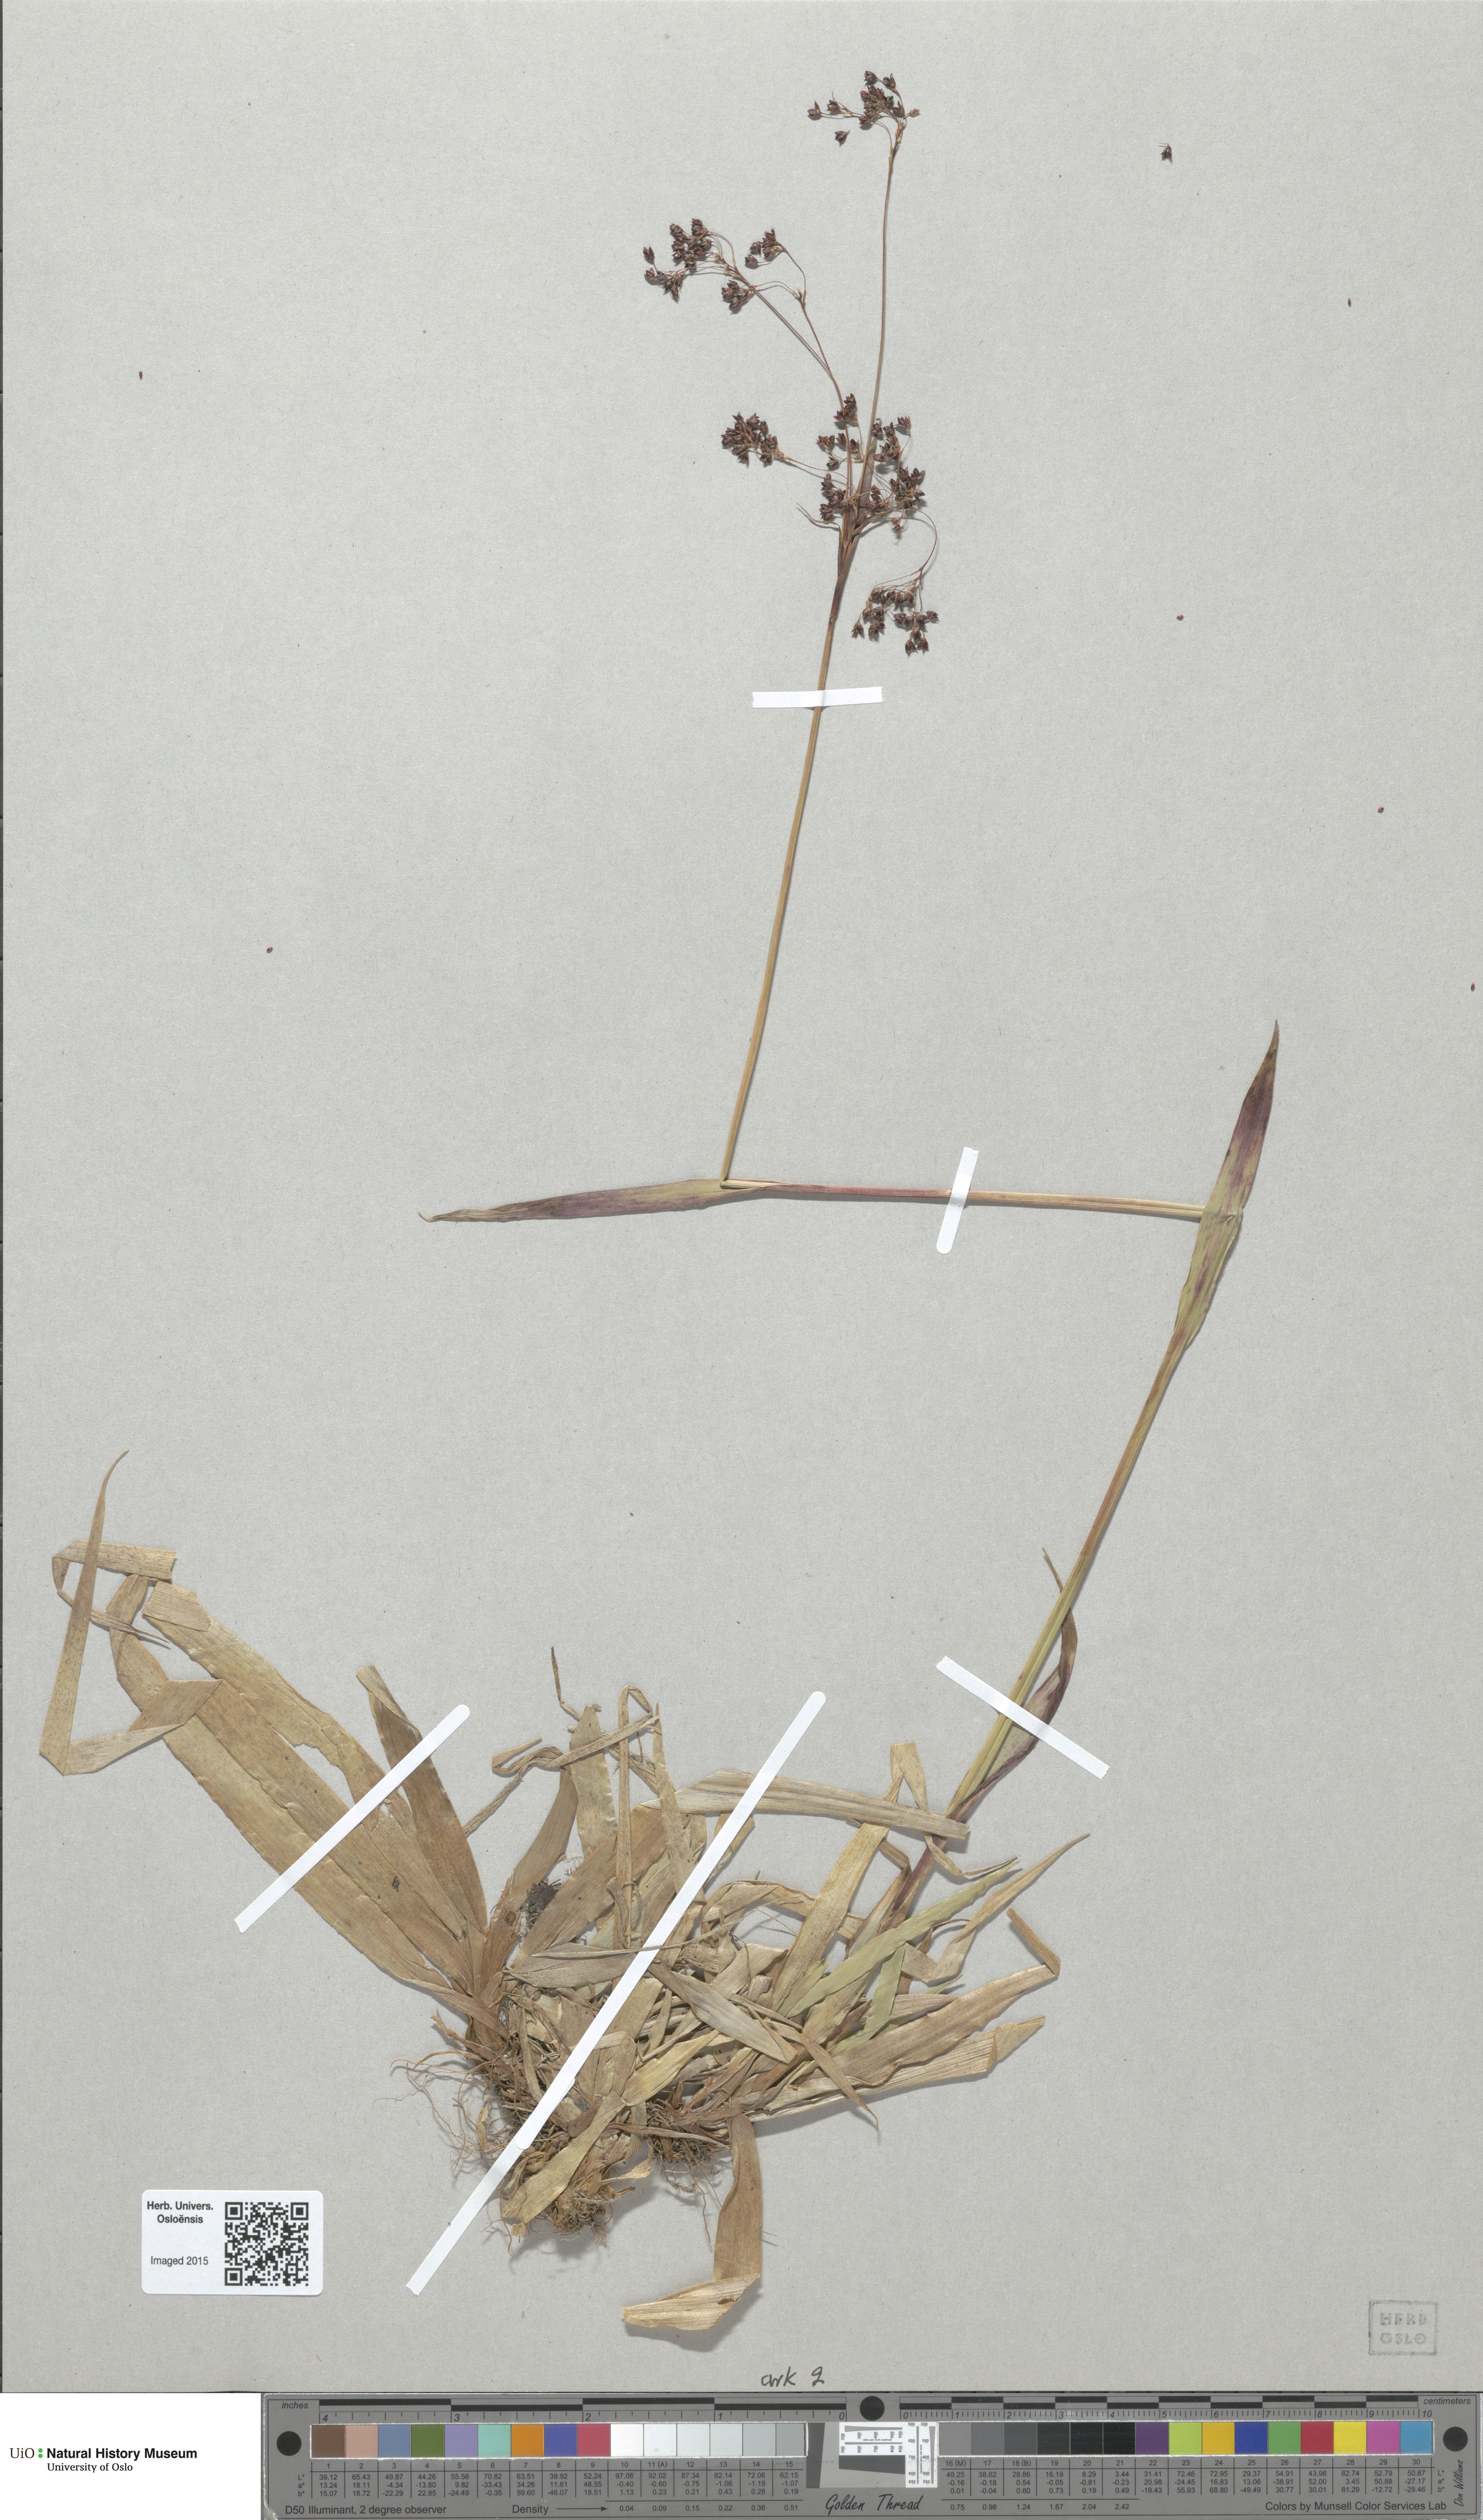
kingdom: Plantae
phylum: Tracheophyta
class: Liliopsida
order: Poales
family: Juncaceae
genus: Luzula
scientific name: Luzula parviflora
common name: Millet woodrush
